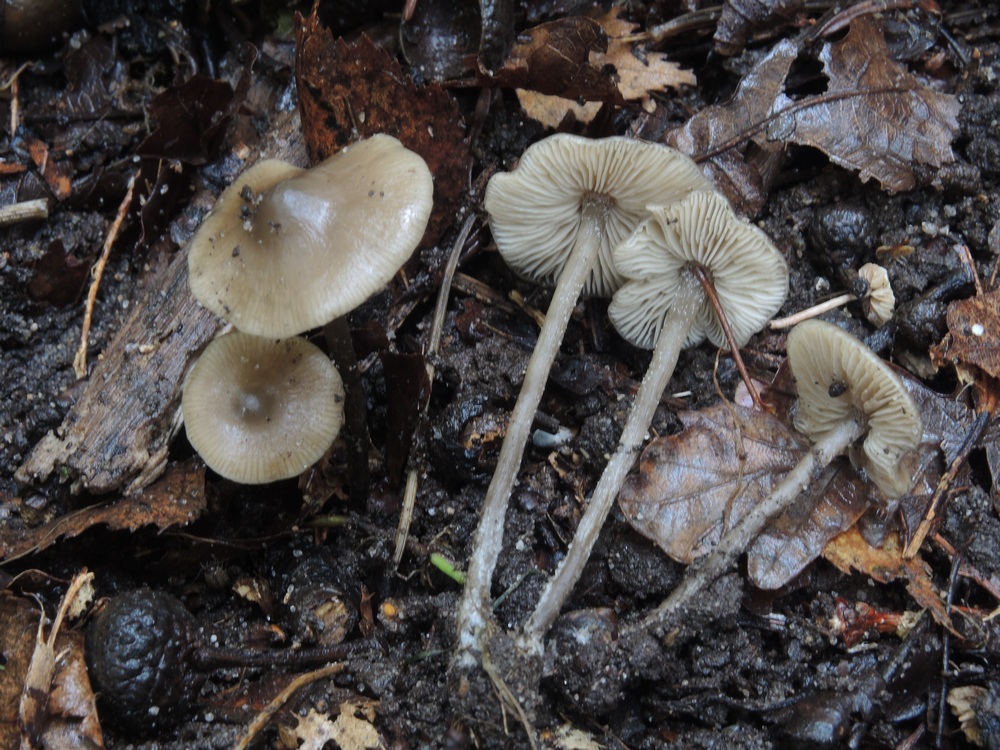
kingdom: Fungi
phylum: Basidiomycota
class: Agaricomycetes
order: Agaricales
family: Lyophyllaceae
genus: Myochromella
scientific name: Myochromella boudieri
